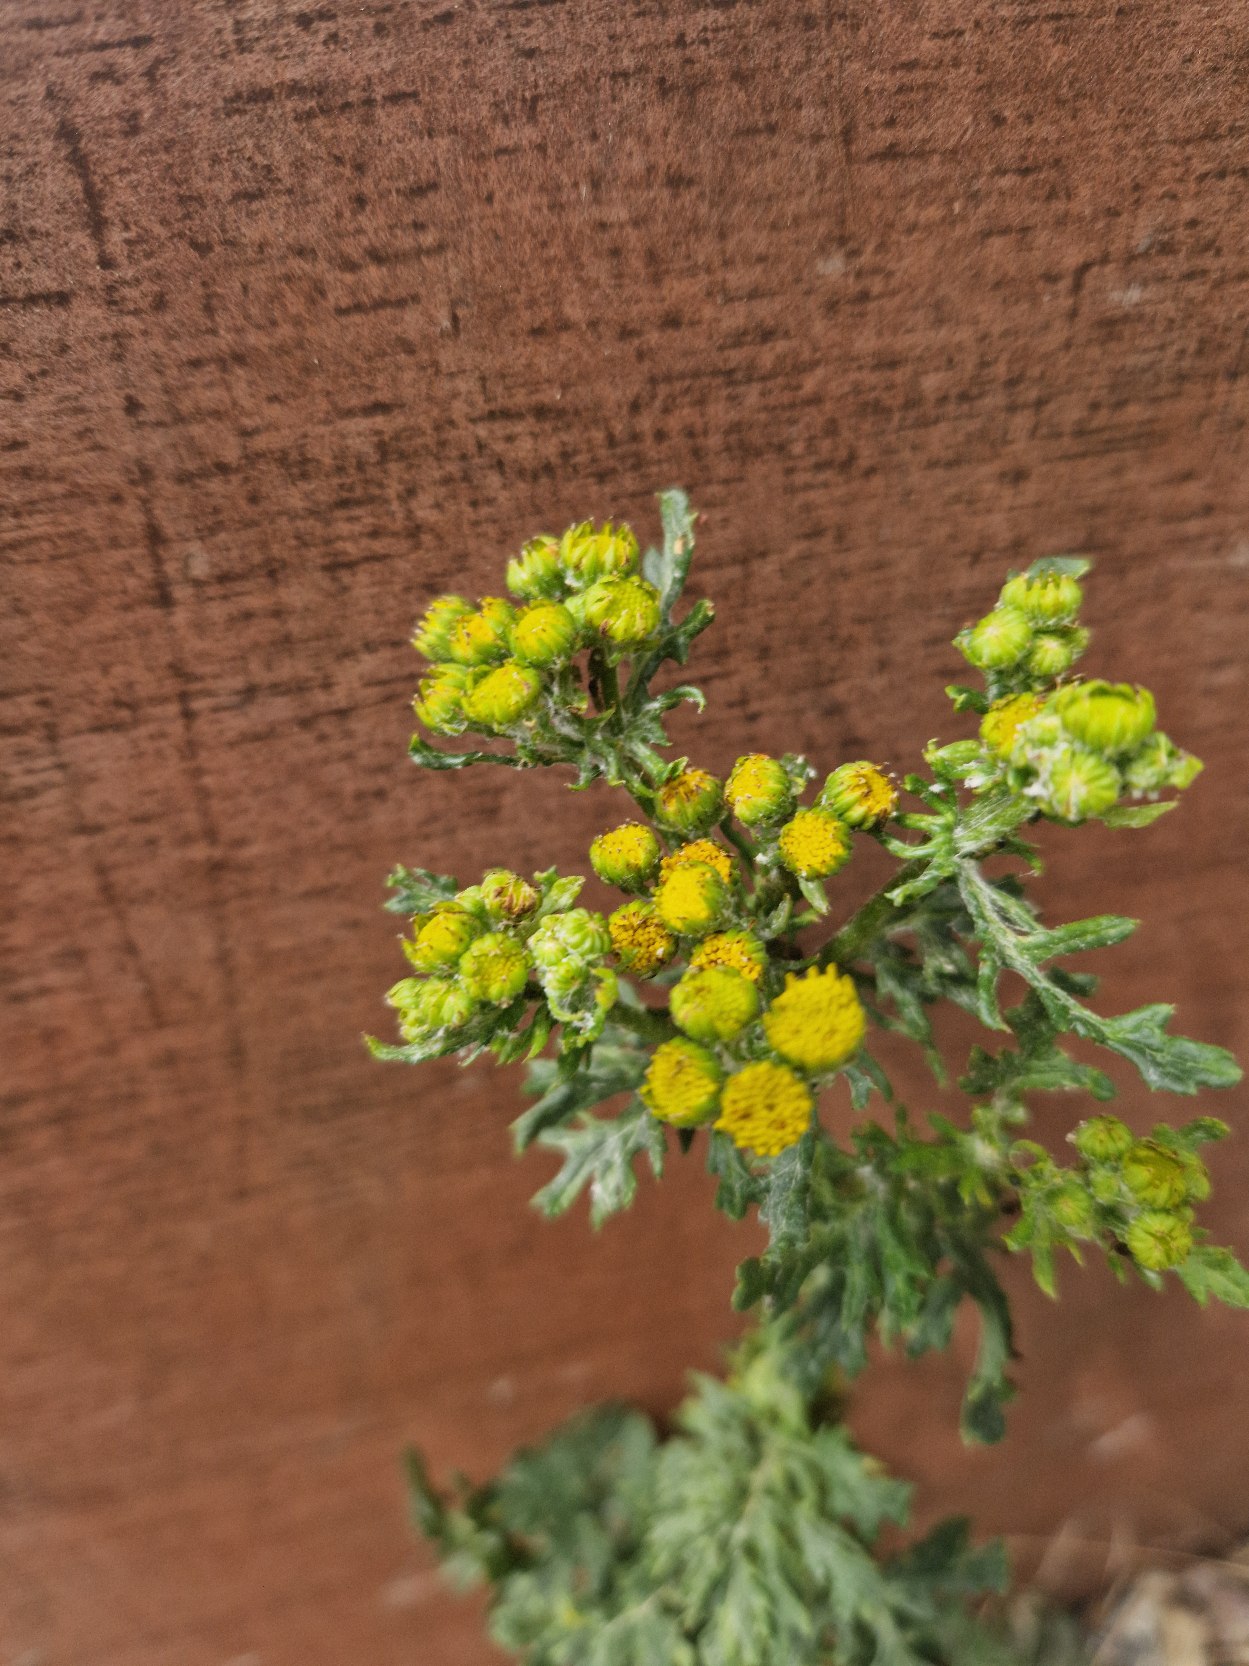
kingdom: Plantae
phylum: Tracheophyta
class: Magnoliopsida
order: Asterales
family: Asteraceae
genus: Jacobaea
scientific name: Jacobaea vulgaris
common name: Eng-brandbæger
